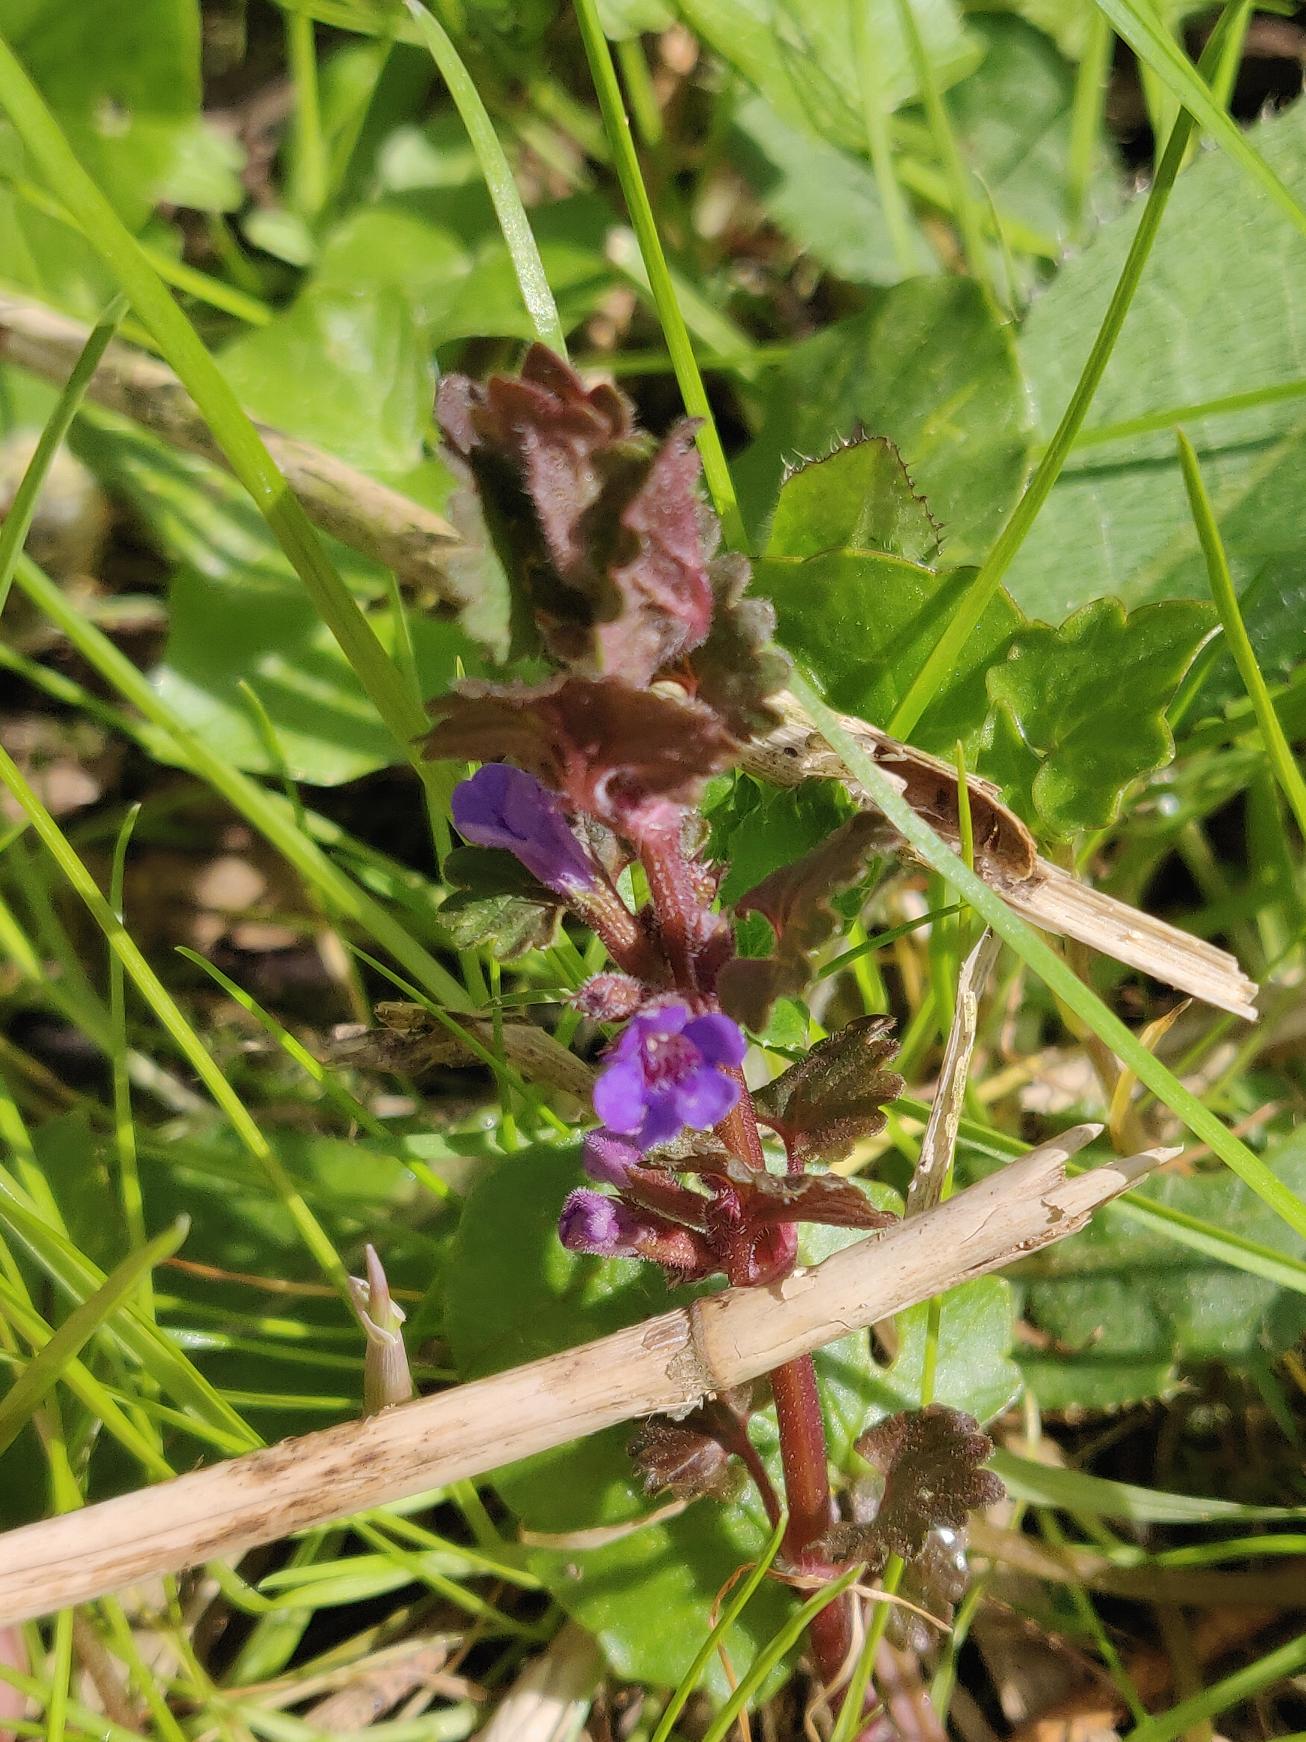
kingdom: Plantae
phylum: Tracheophyta
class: Magnoliopsida
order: Lamiales
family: Lamiaceae
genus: Glechoma
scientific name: Glechoma hederacea
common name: Korsknap
